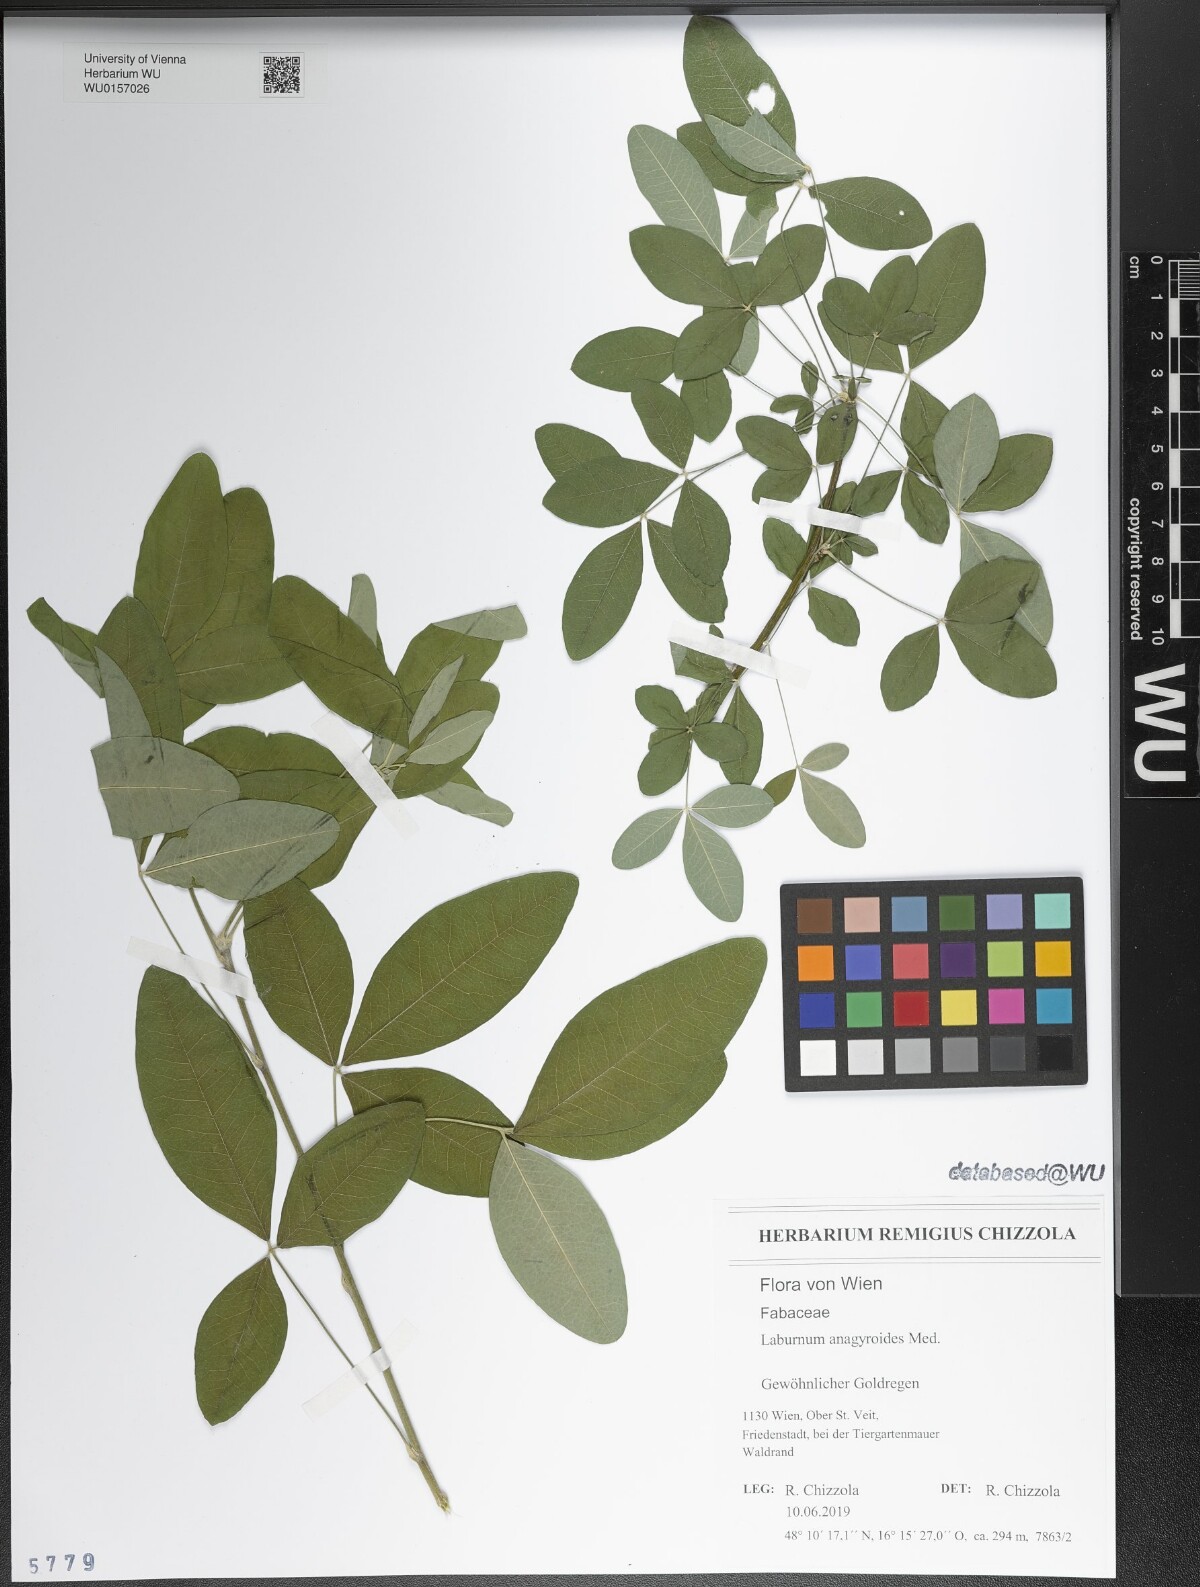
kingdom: Plantae
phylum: Tracheophyta
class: Magnoliopsida
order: Fabales
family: Fabaceae
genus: Laburnum
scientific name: Laburnum anagyroides
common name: Laburnum
